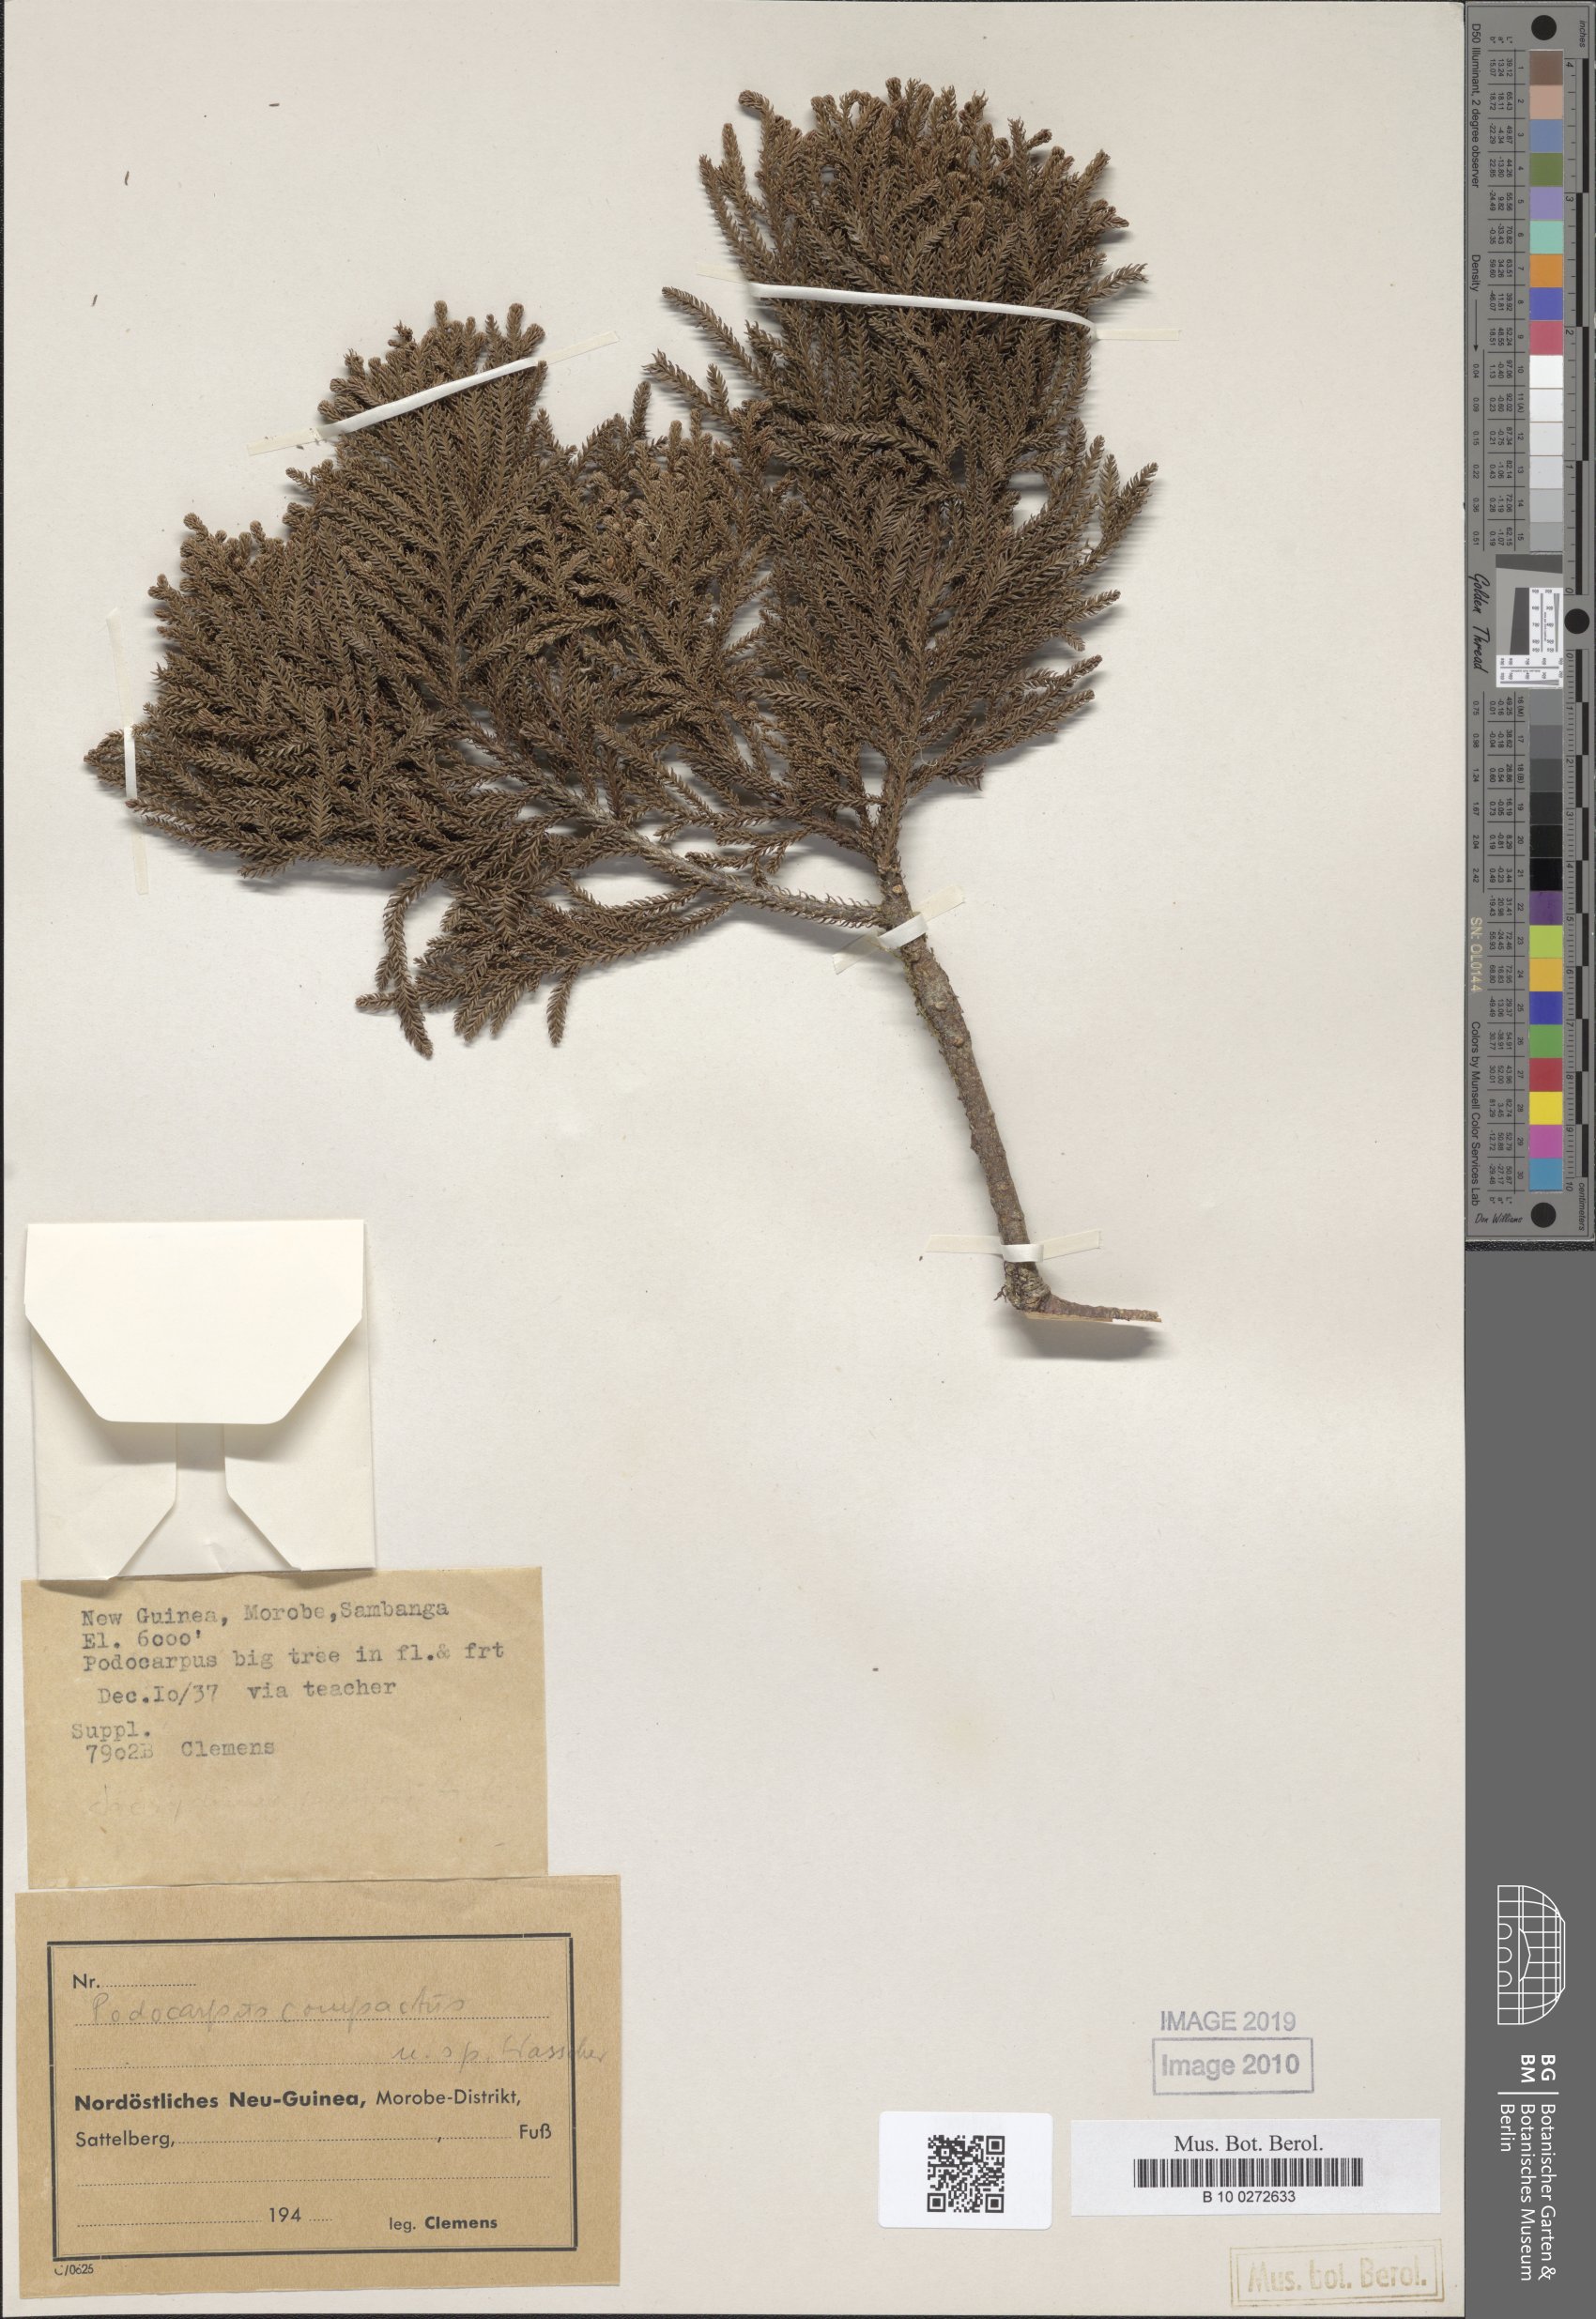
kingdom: Plantae
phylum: Tracheophyta
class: Pinopsida
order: Pinales
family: Podocarpaceae
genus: Dacrycarpus
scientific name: Dacrycarpus compactus
